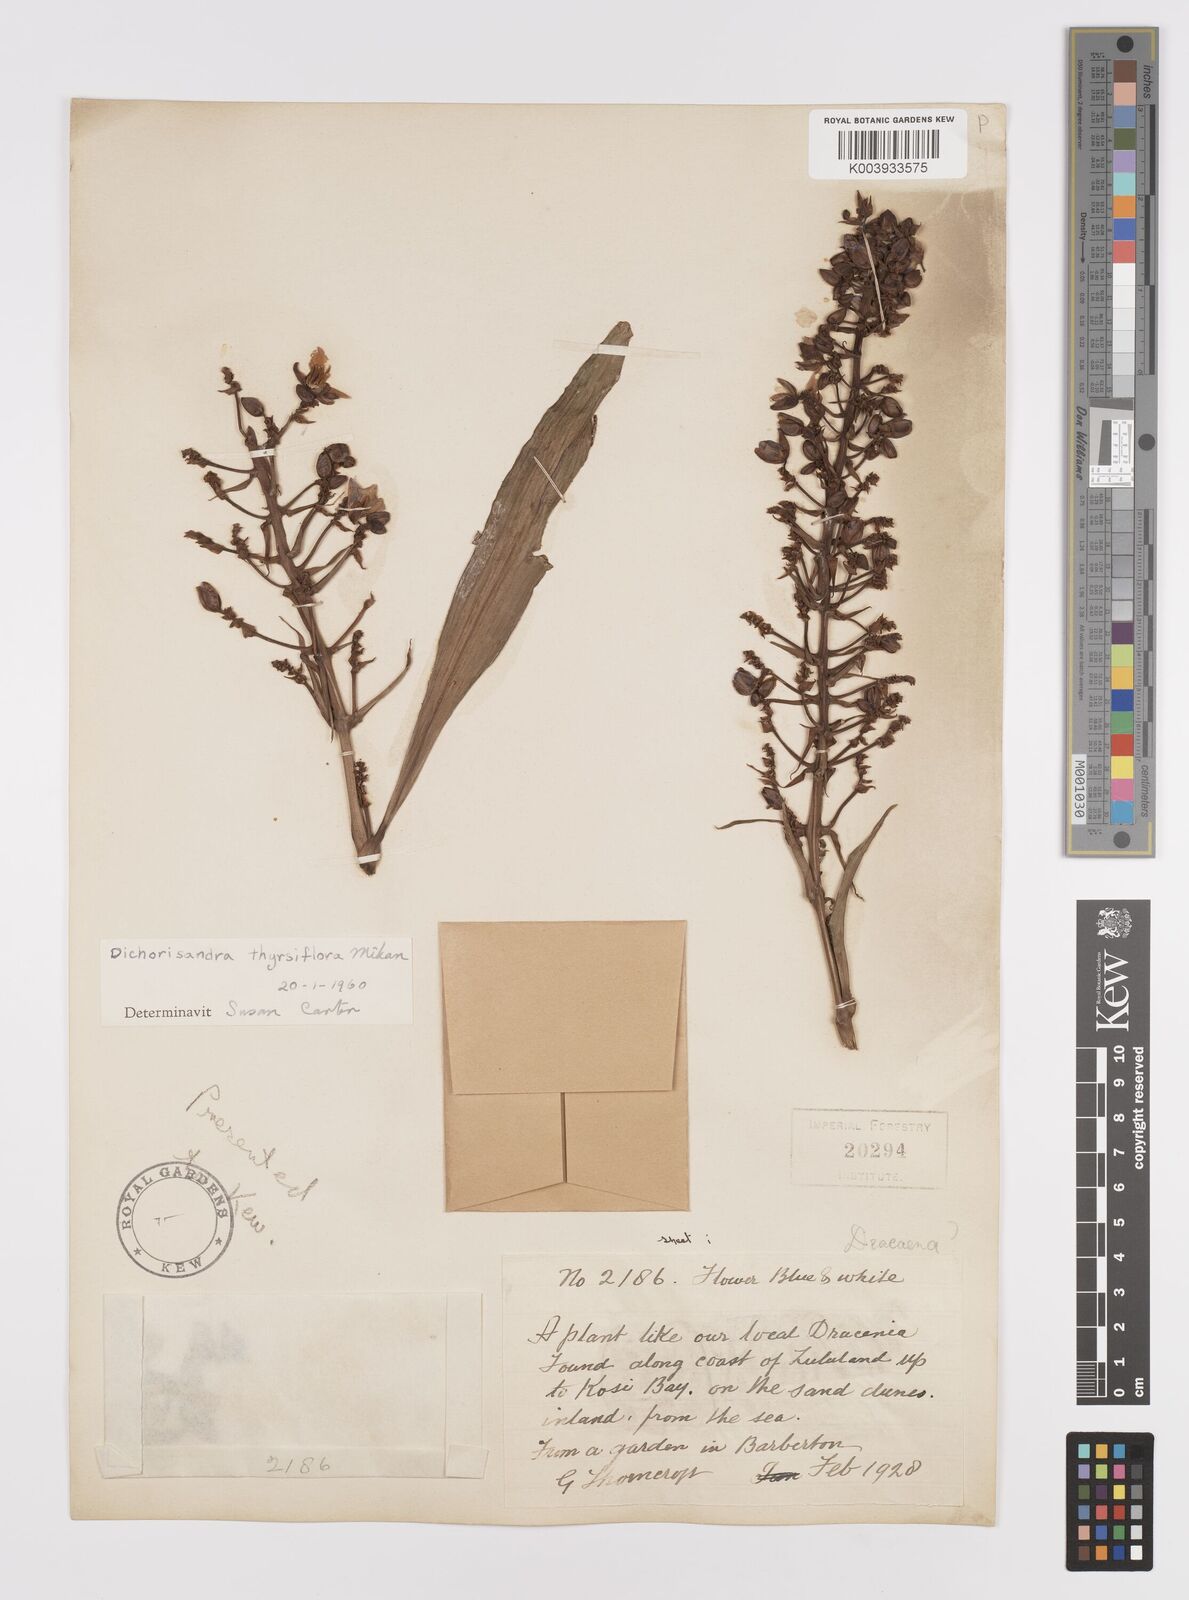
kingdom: Plantae
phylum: Tracheophyta
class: Liliopsida
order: Commelinales
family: Commelinaceae
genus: Dichorisandra
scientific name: Dichorisandra thyrsiflora
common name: Blue-ginger
